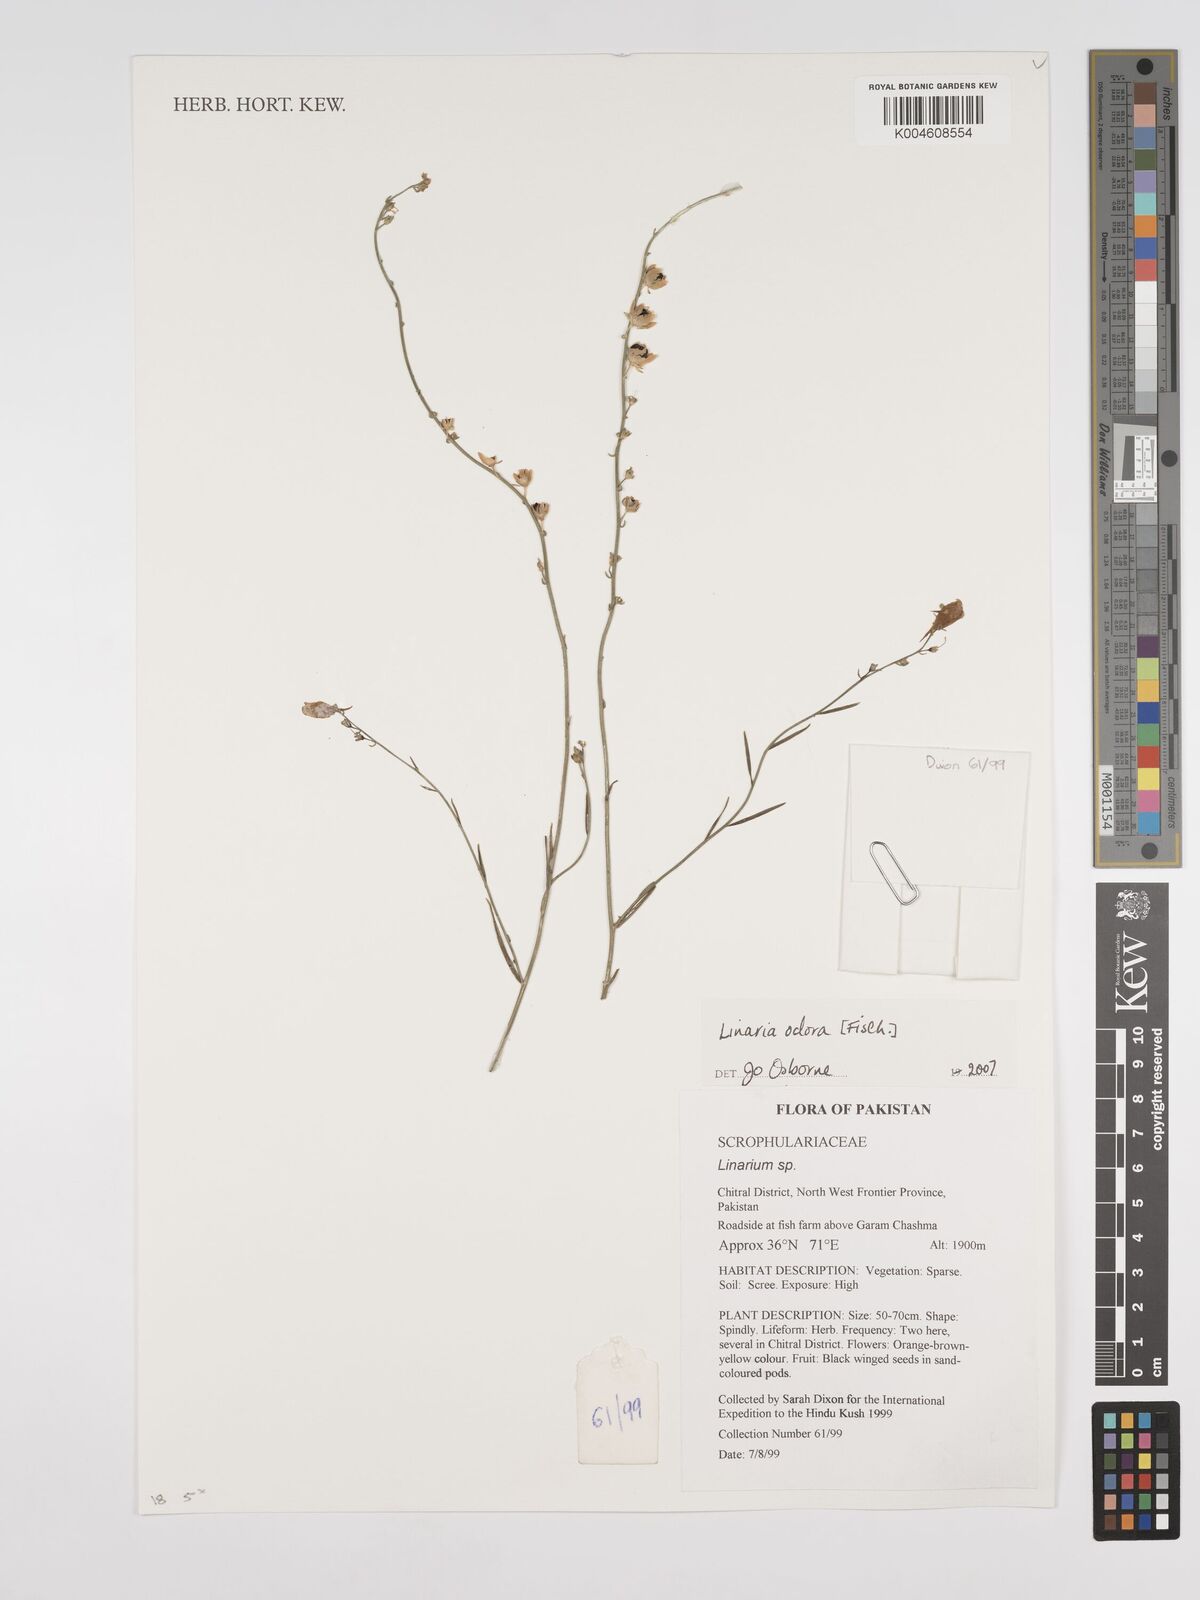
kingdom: Plantae
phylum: Tracheophyta
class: Magnoliopsida
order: Lamiales
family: Plantaginaceae
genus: Kickxia
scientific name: Kickxia
